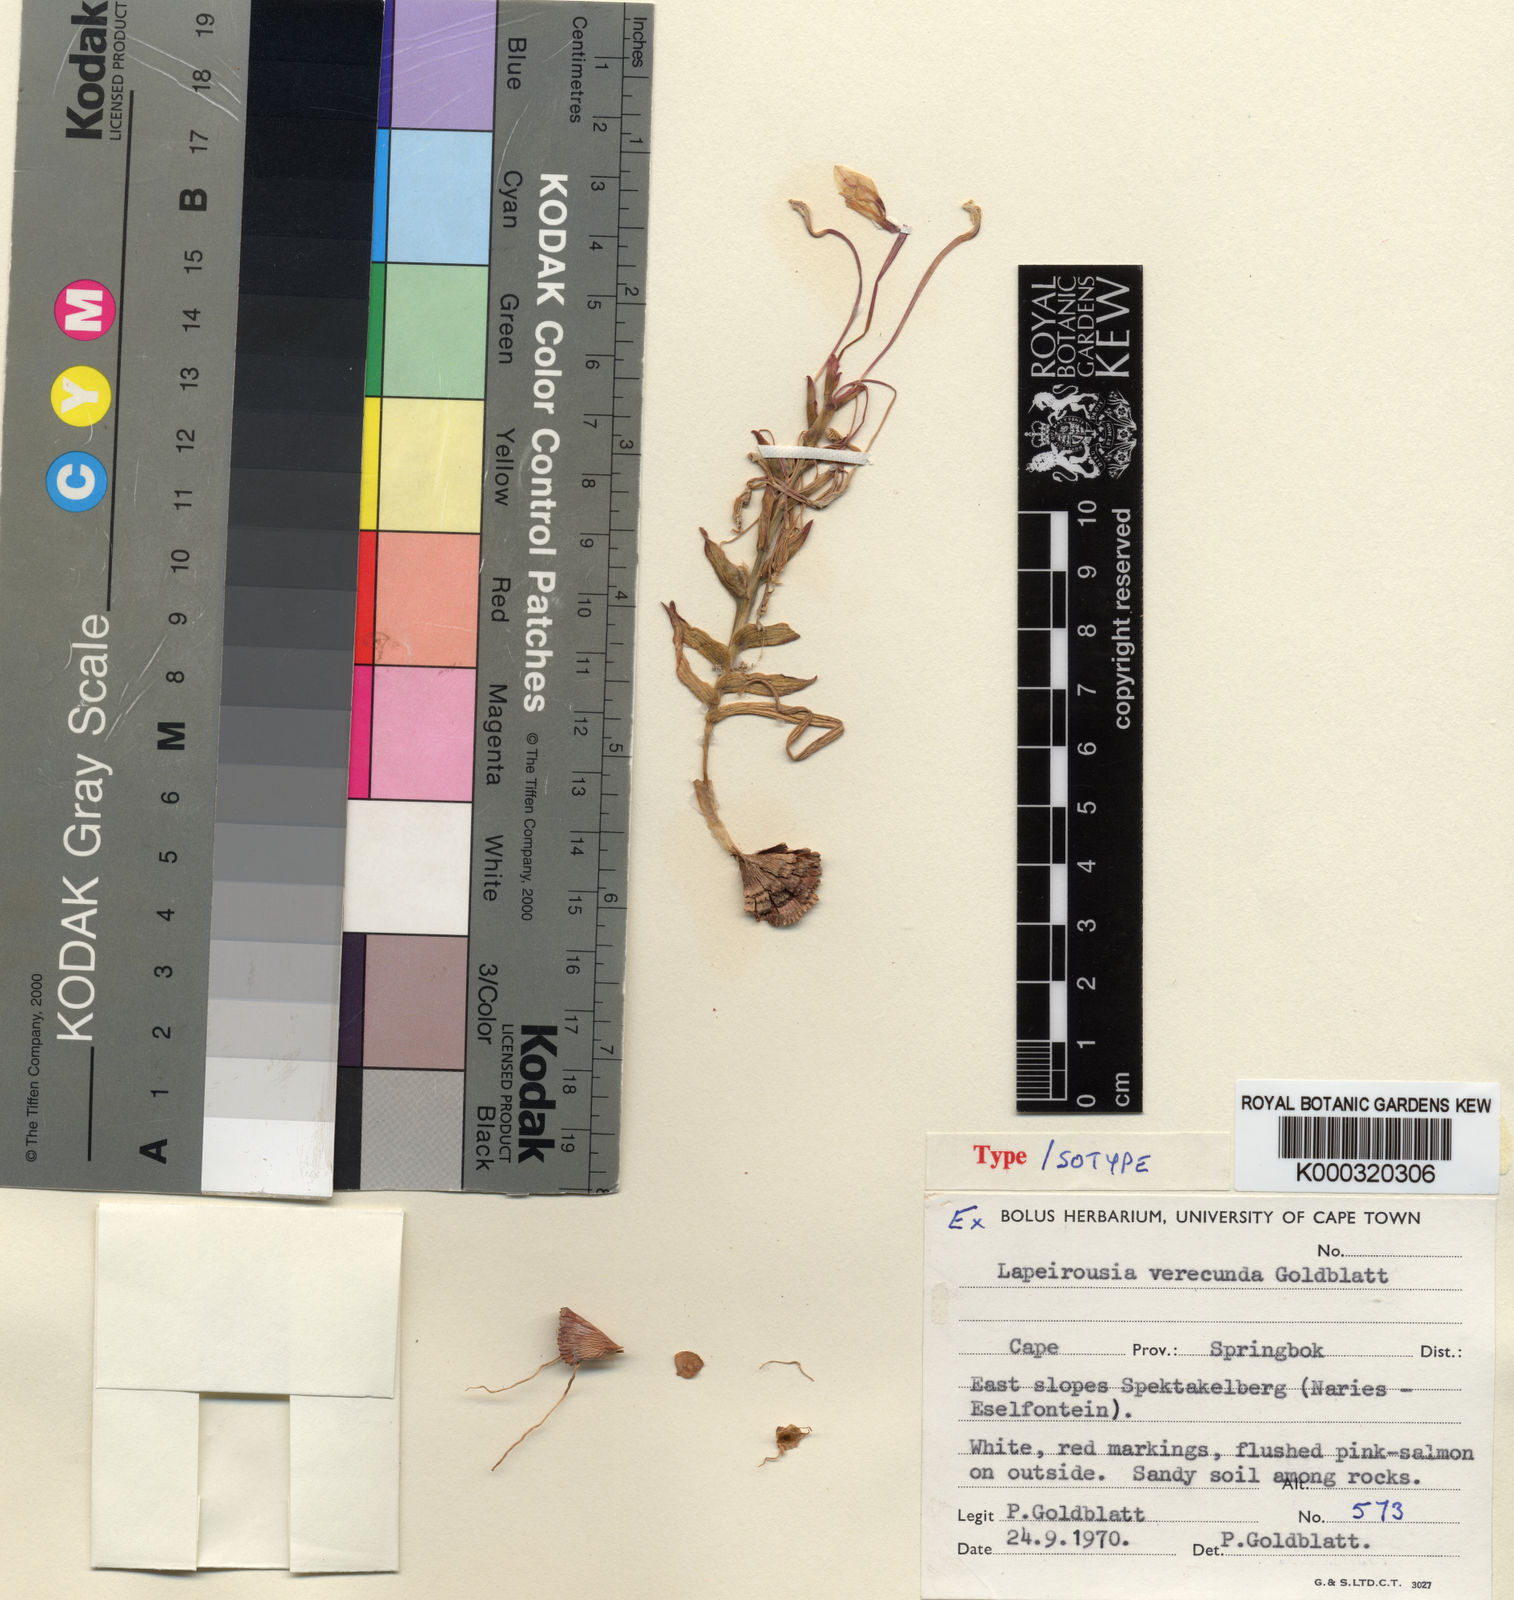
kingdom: Plantae
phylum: Tracheophyta
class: Liliopsida
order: Asparagales
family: Iridaceae
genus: Lapeirousia
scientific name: Lapeirousia verecunda
